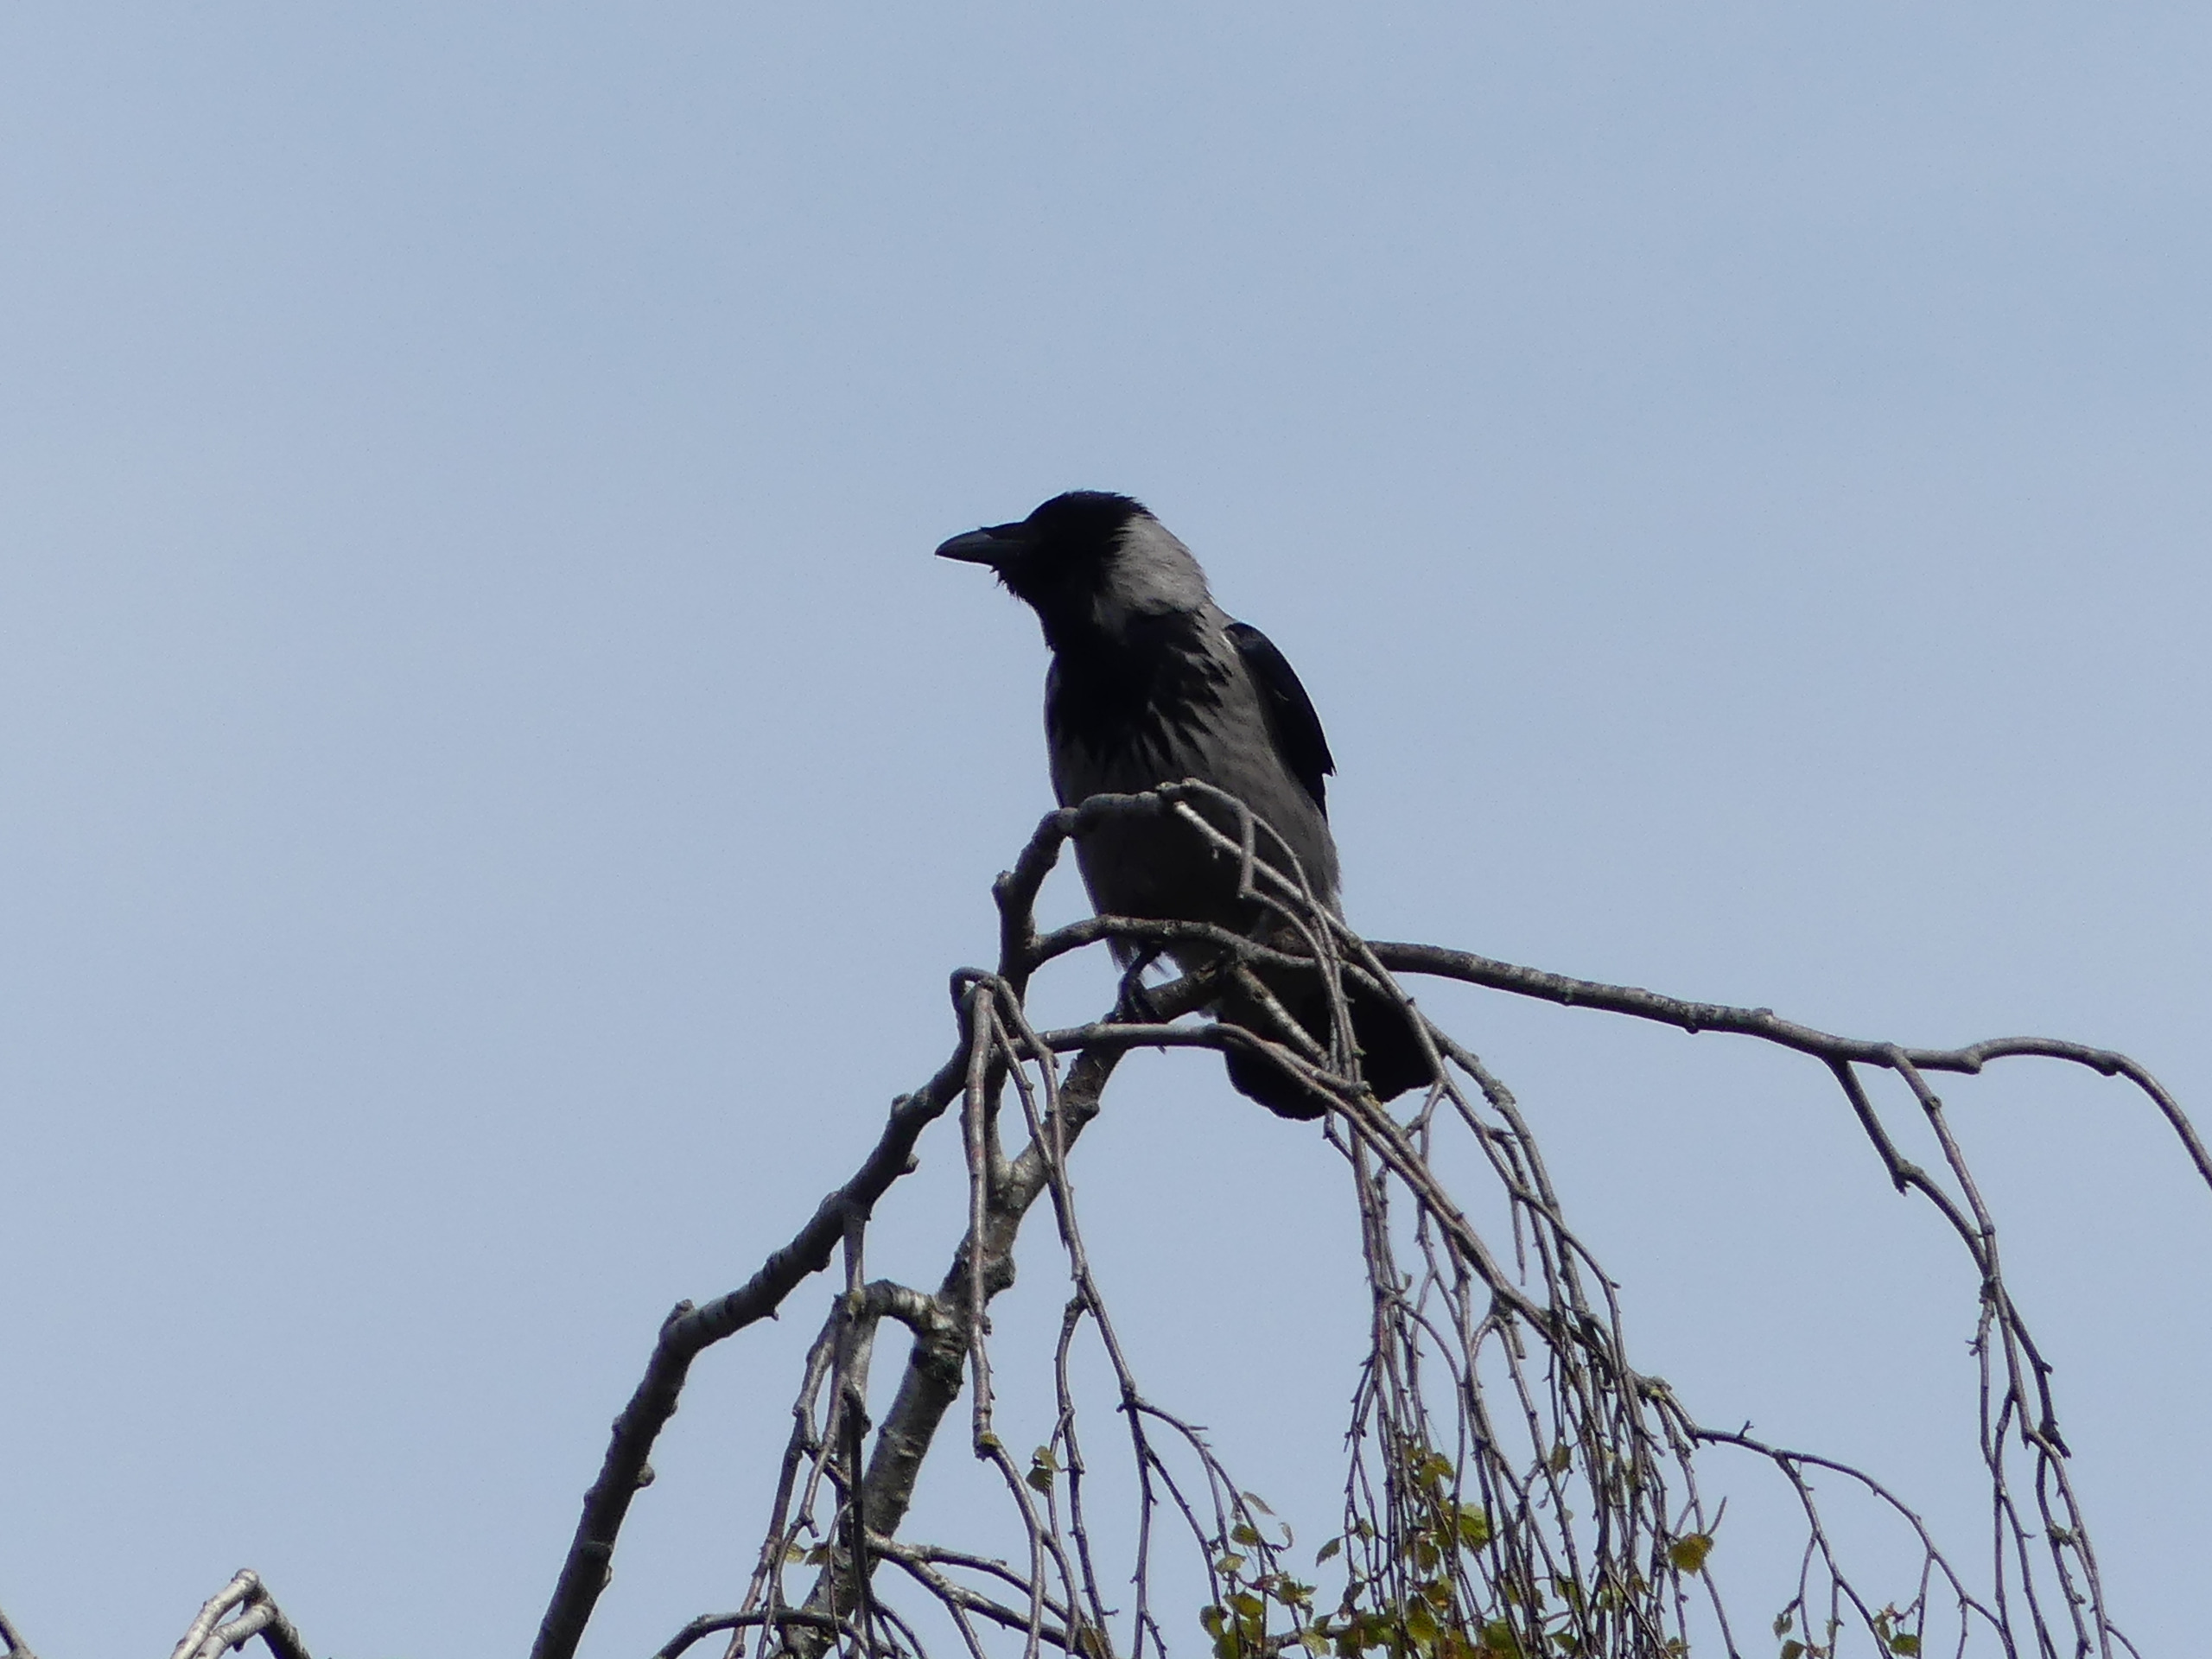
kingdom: Animalia
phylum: Chordata
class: Aves
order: Passeriformes
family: Corvidae
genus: Corvus
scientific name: Corvus cornix
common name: Gråkrage
